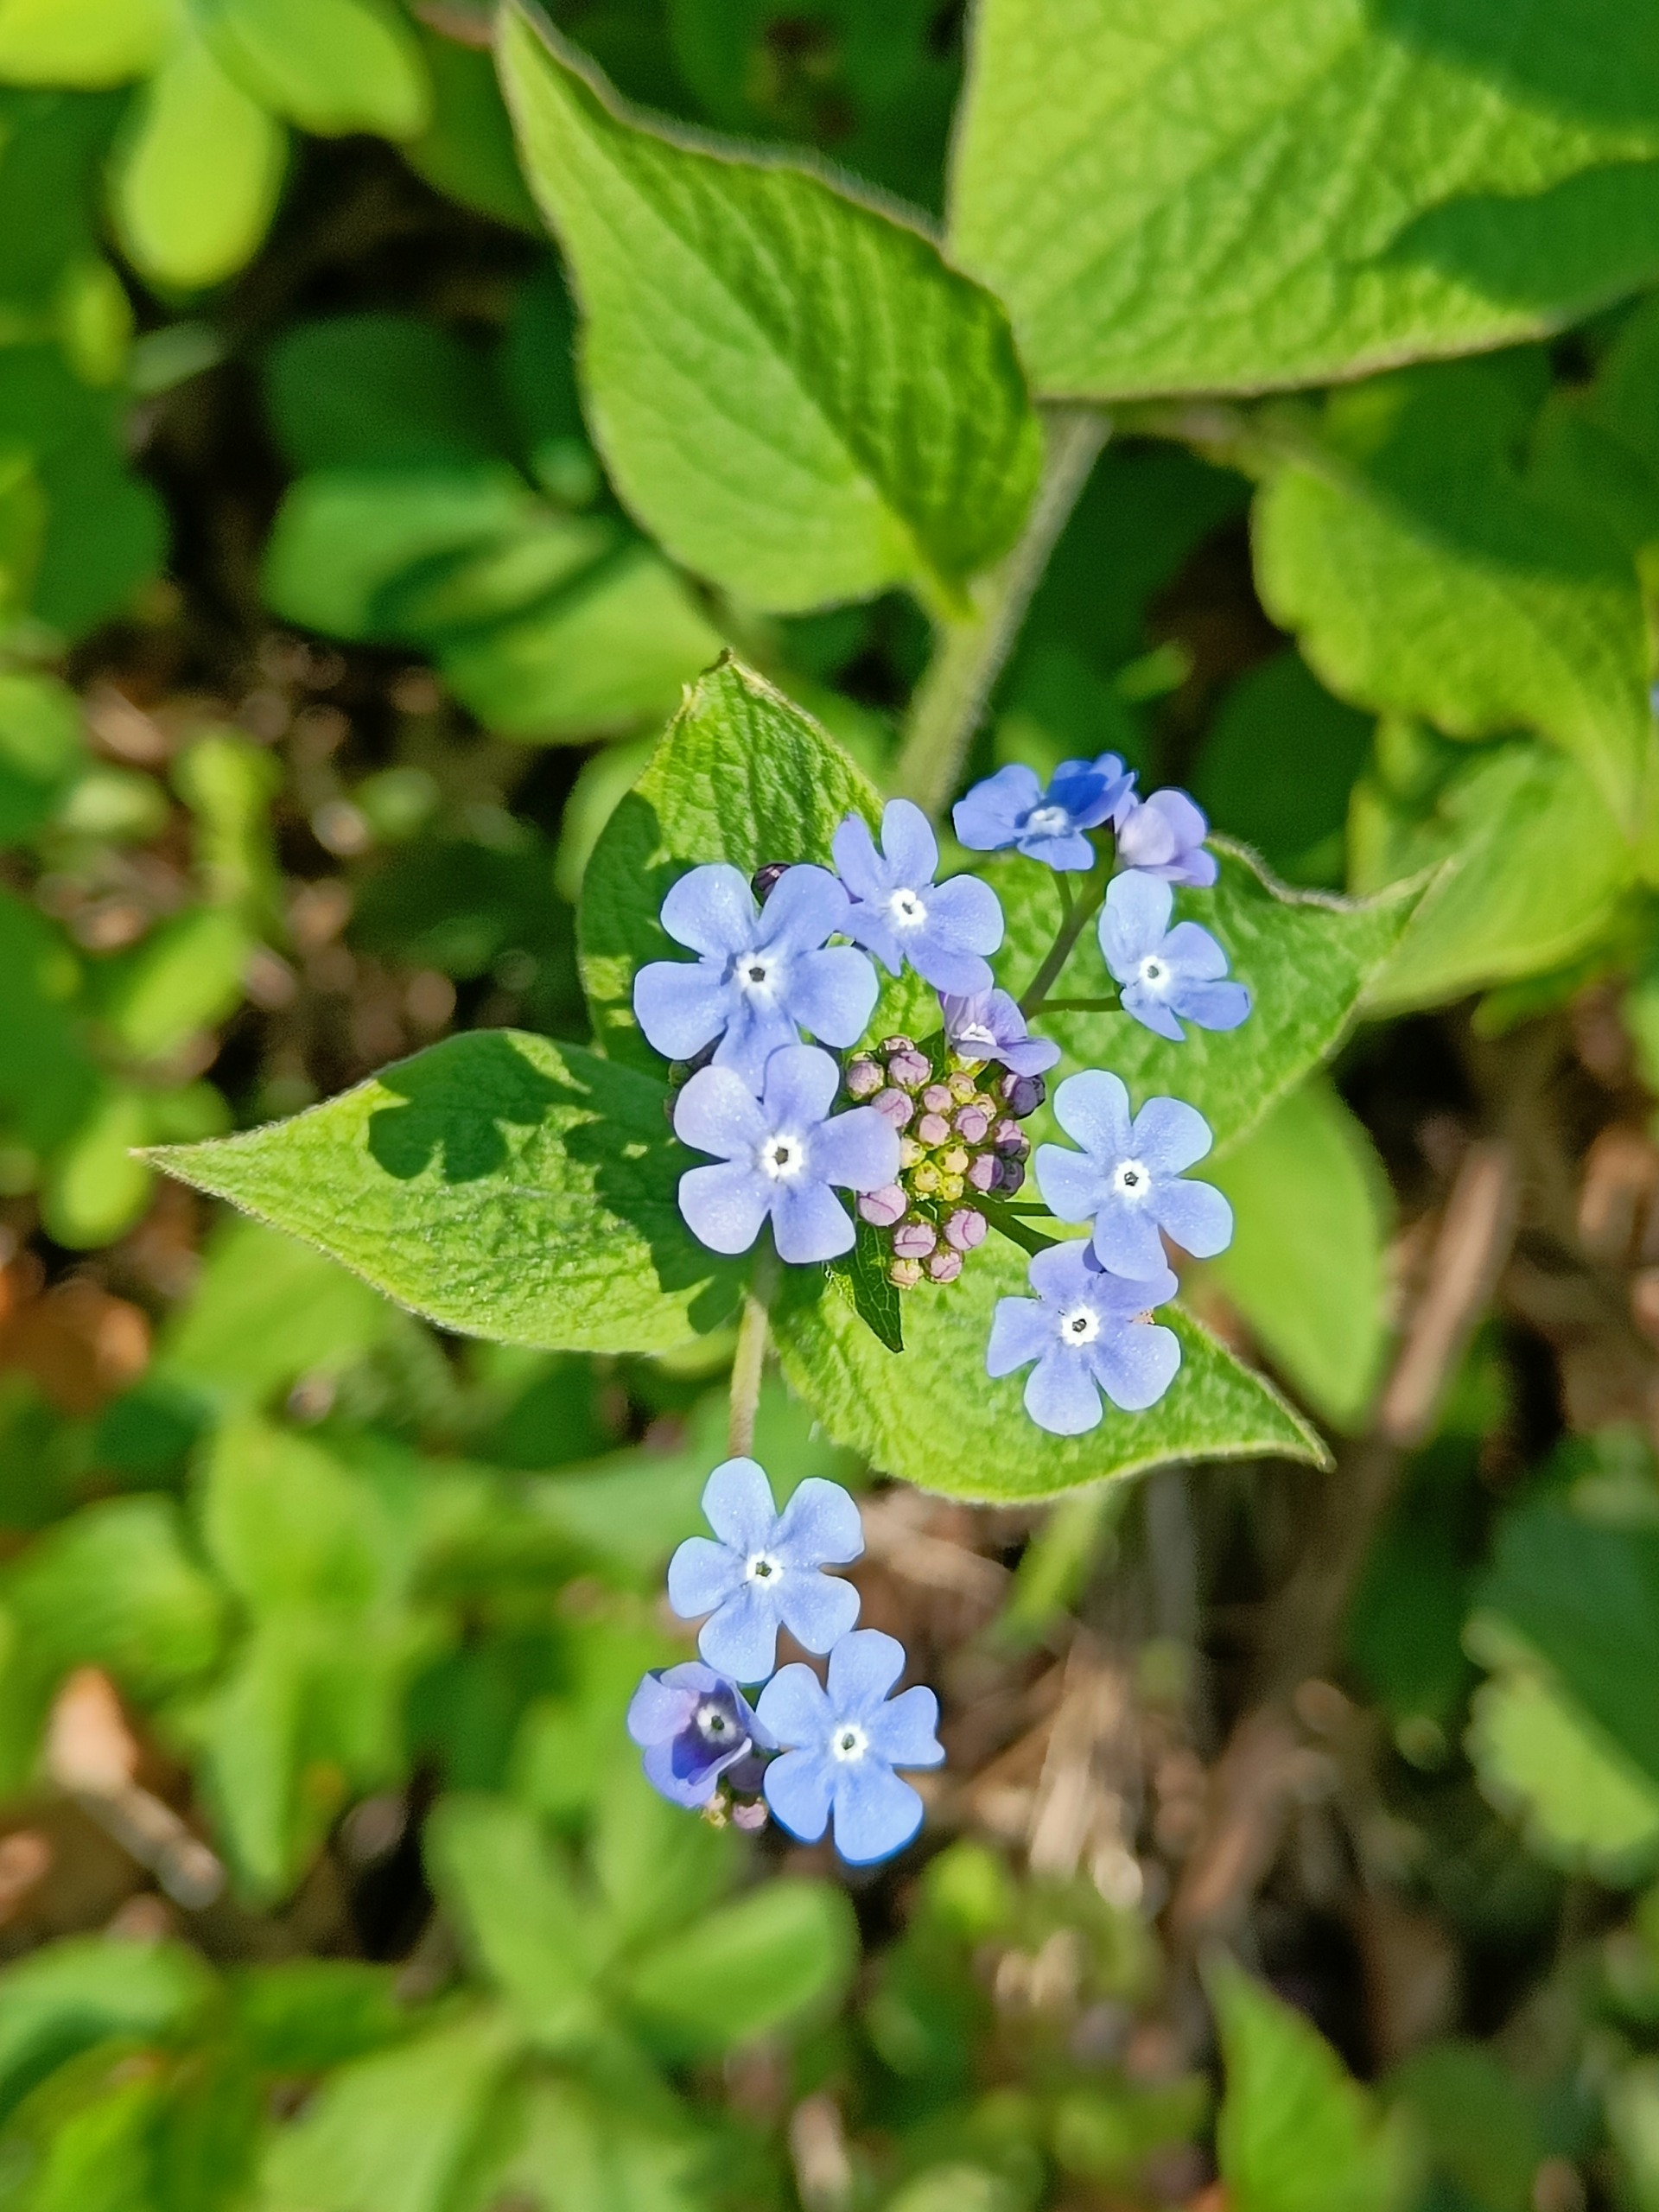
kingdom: Plantae
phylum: Tracheophyta
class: Magnoliopsida
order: Boraginales
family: Boraginaceae
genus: Omphalodes
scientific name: Omphalodes verna
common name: Vår-kærminde
